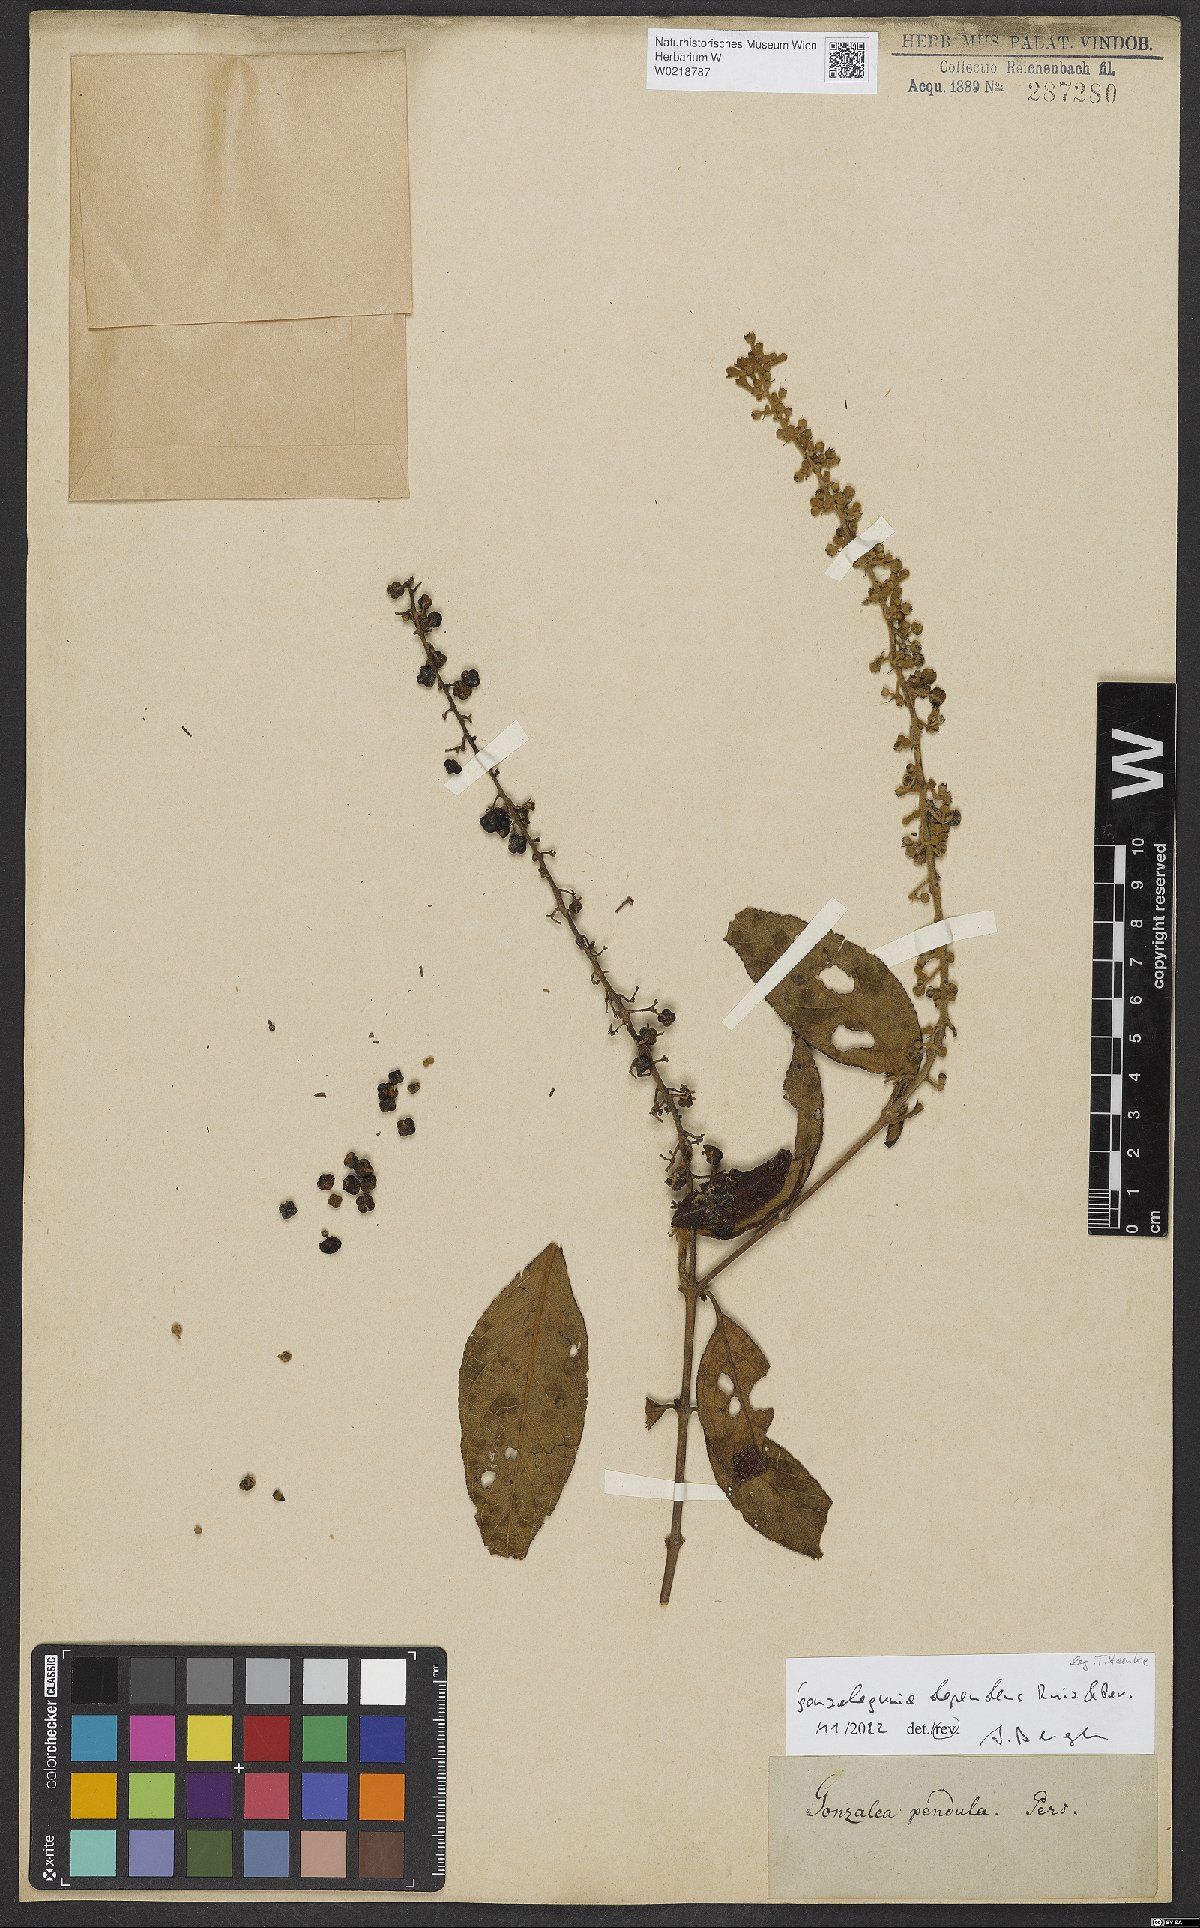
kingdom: Plantae
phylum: Tracheophyta
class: Magnoliopsida
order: Gentianales
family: Rubiaceae
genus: Gonzalagunia
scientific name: Gonzalagunia dependens
